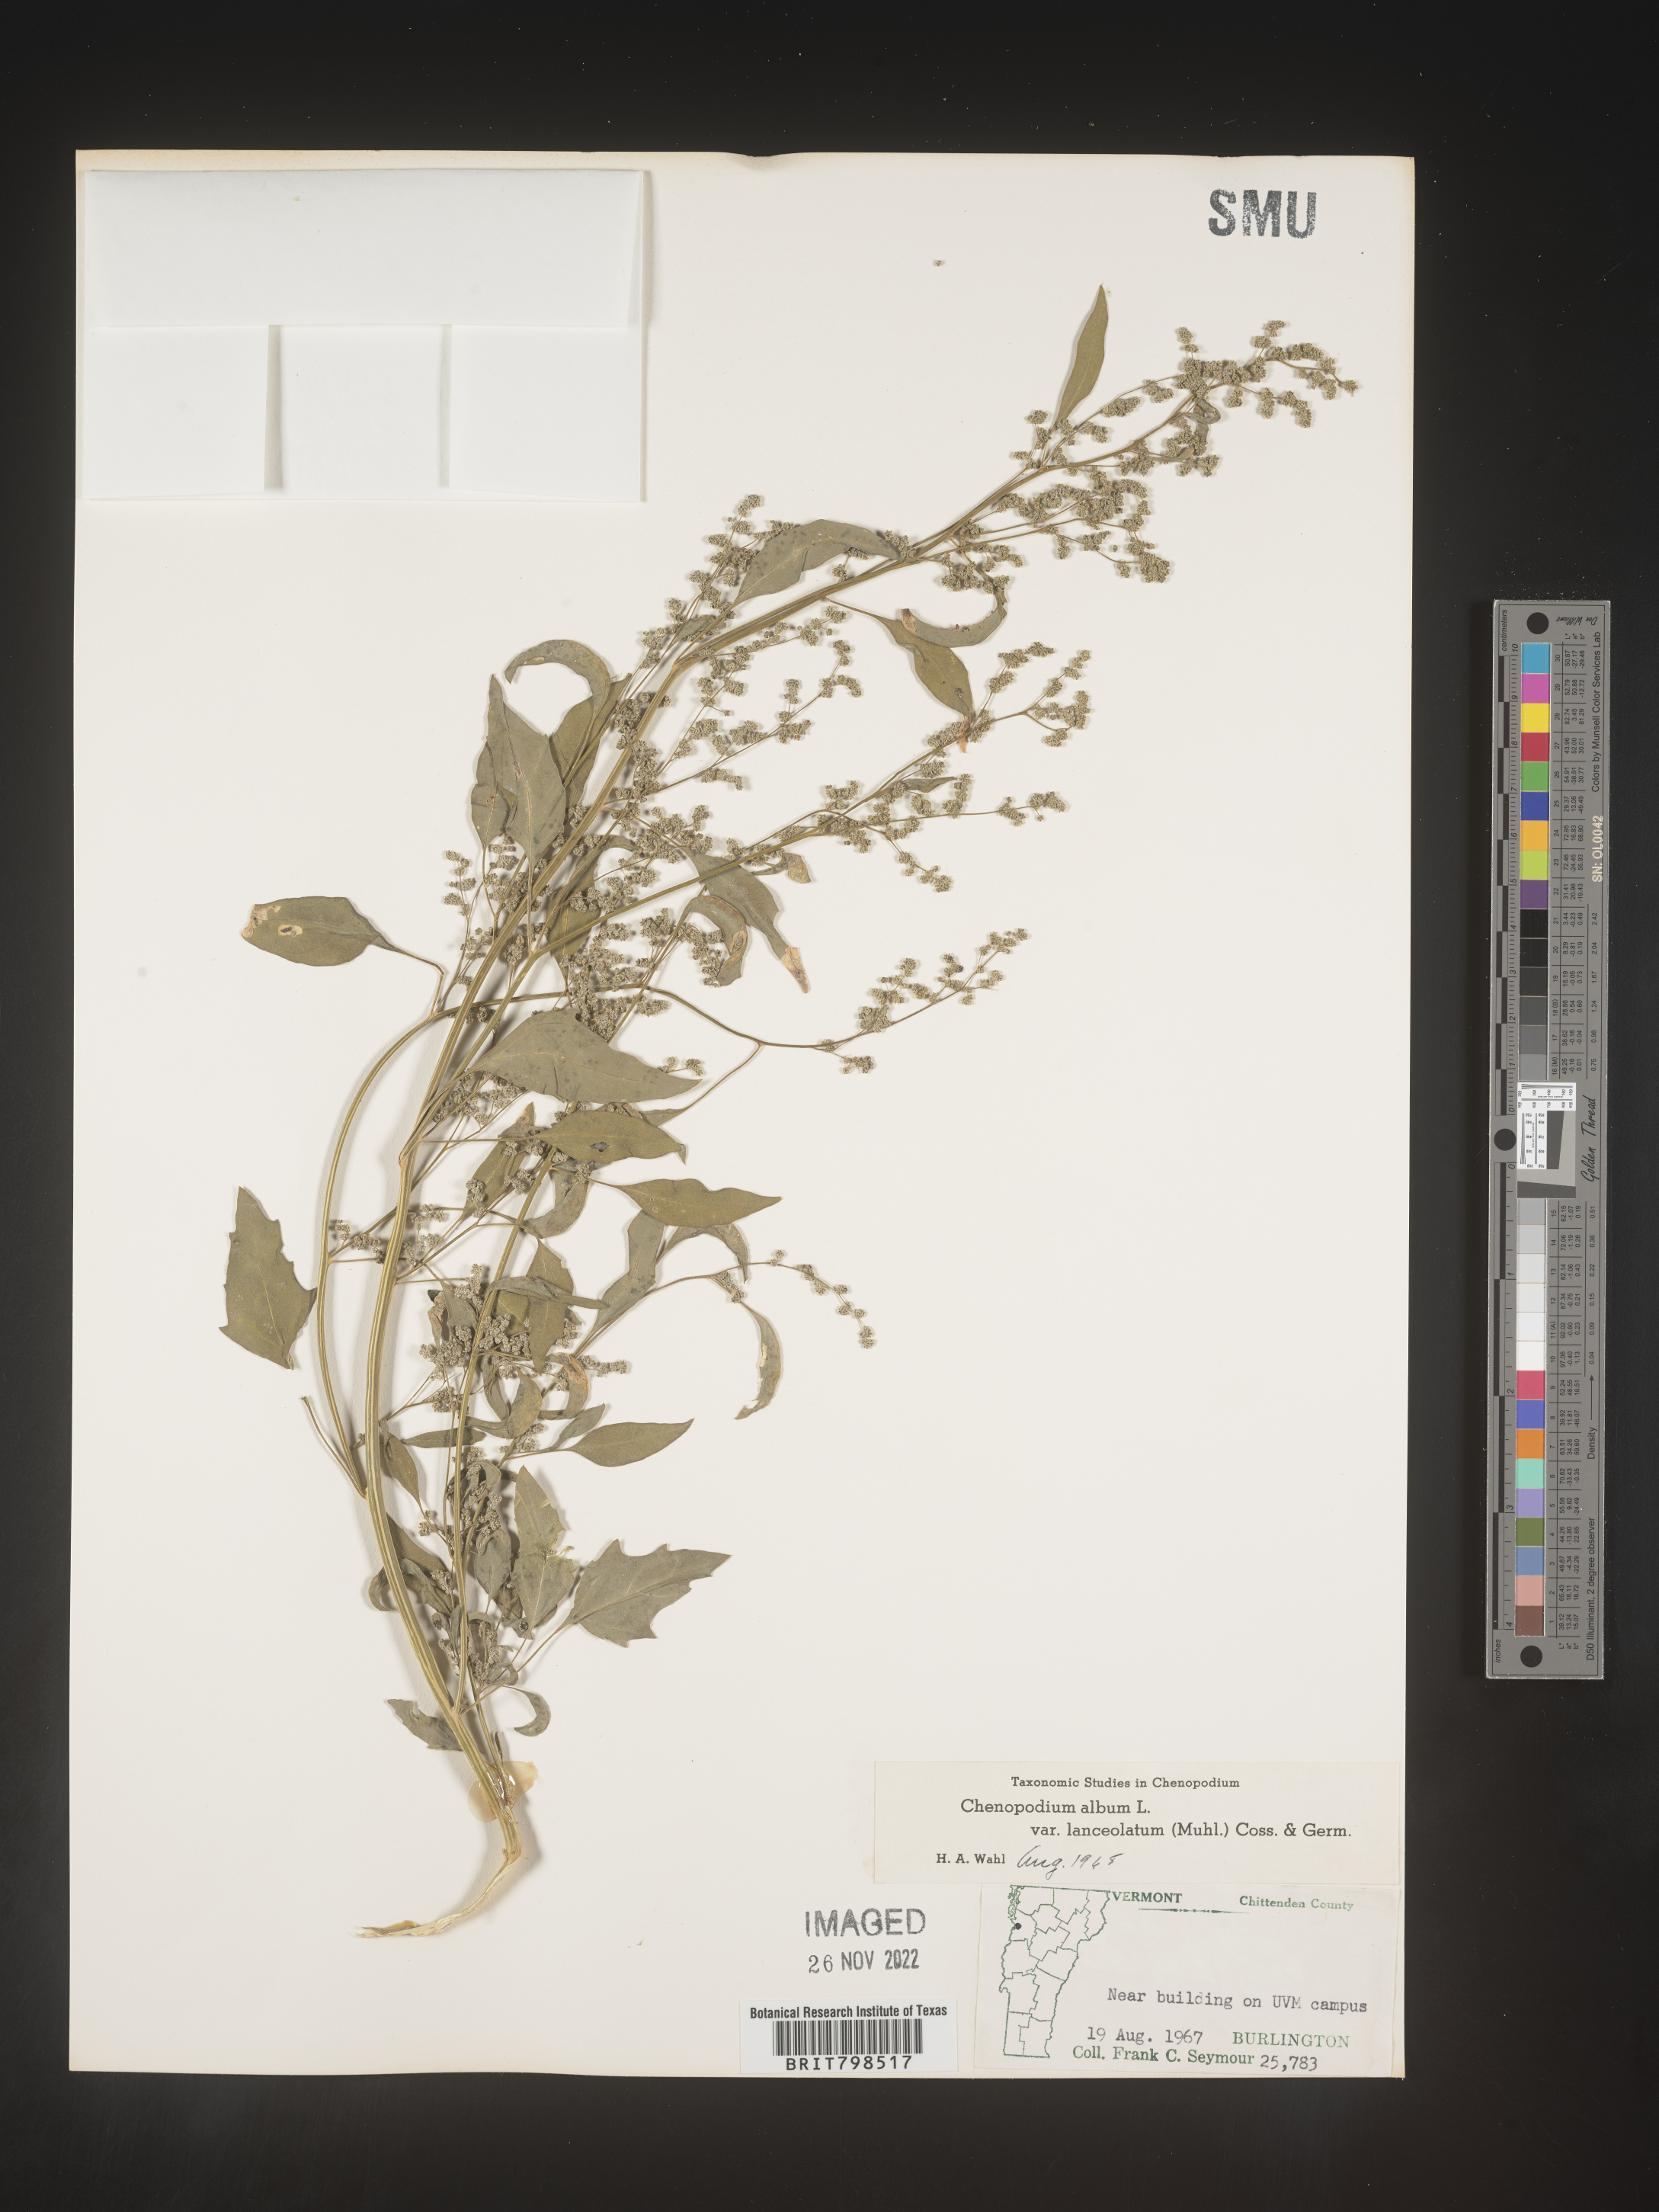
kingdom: Plantae
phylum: Tracheophyta
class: Magnoliopsida
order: Caryophyllales
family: Amaranthaceae
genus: Chenopodium
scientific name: Chenopodium album
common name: Fat-hen
